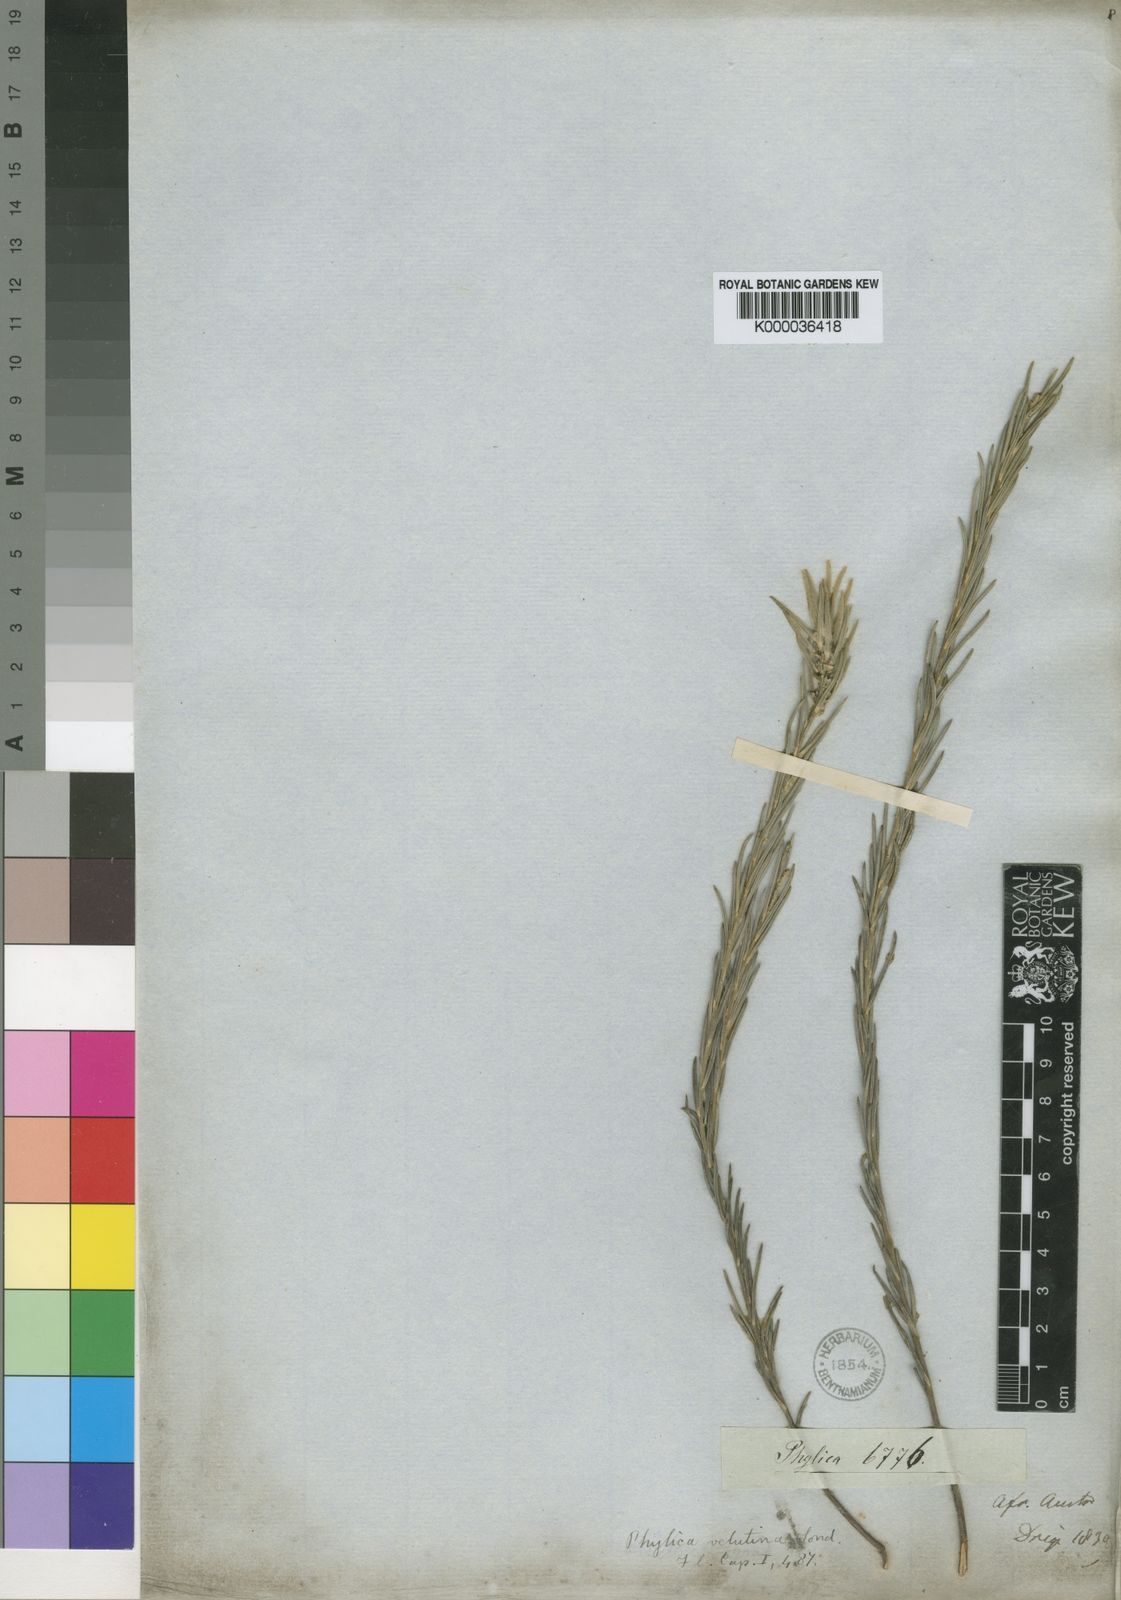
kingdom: Plantae
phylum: Tracheophyta
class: Magnoliopsida
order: Rosales
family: Rhamnaceae
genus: Phylica
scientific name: Phylica velutina
